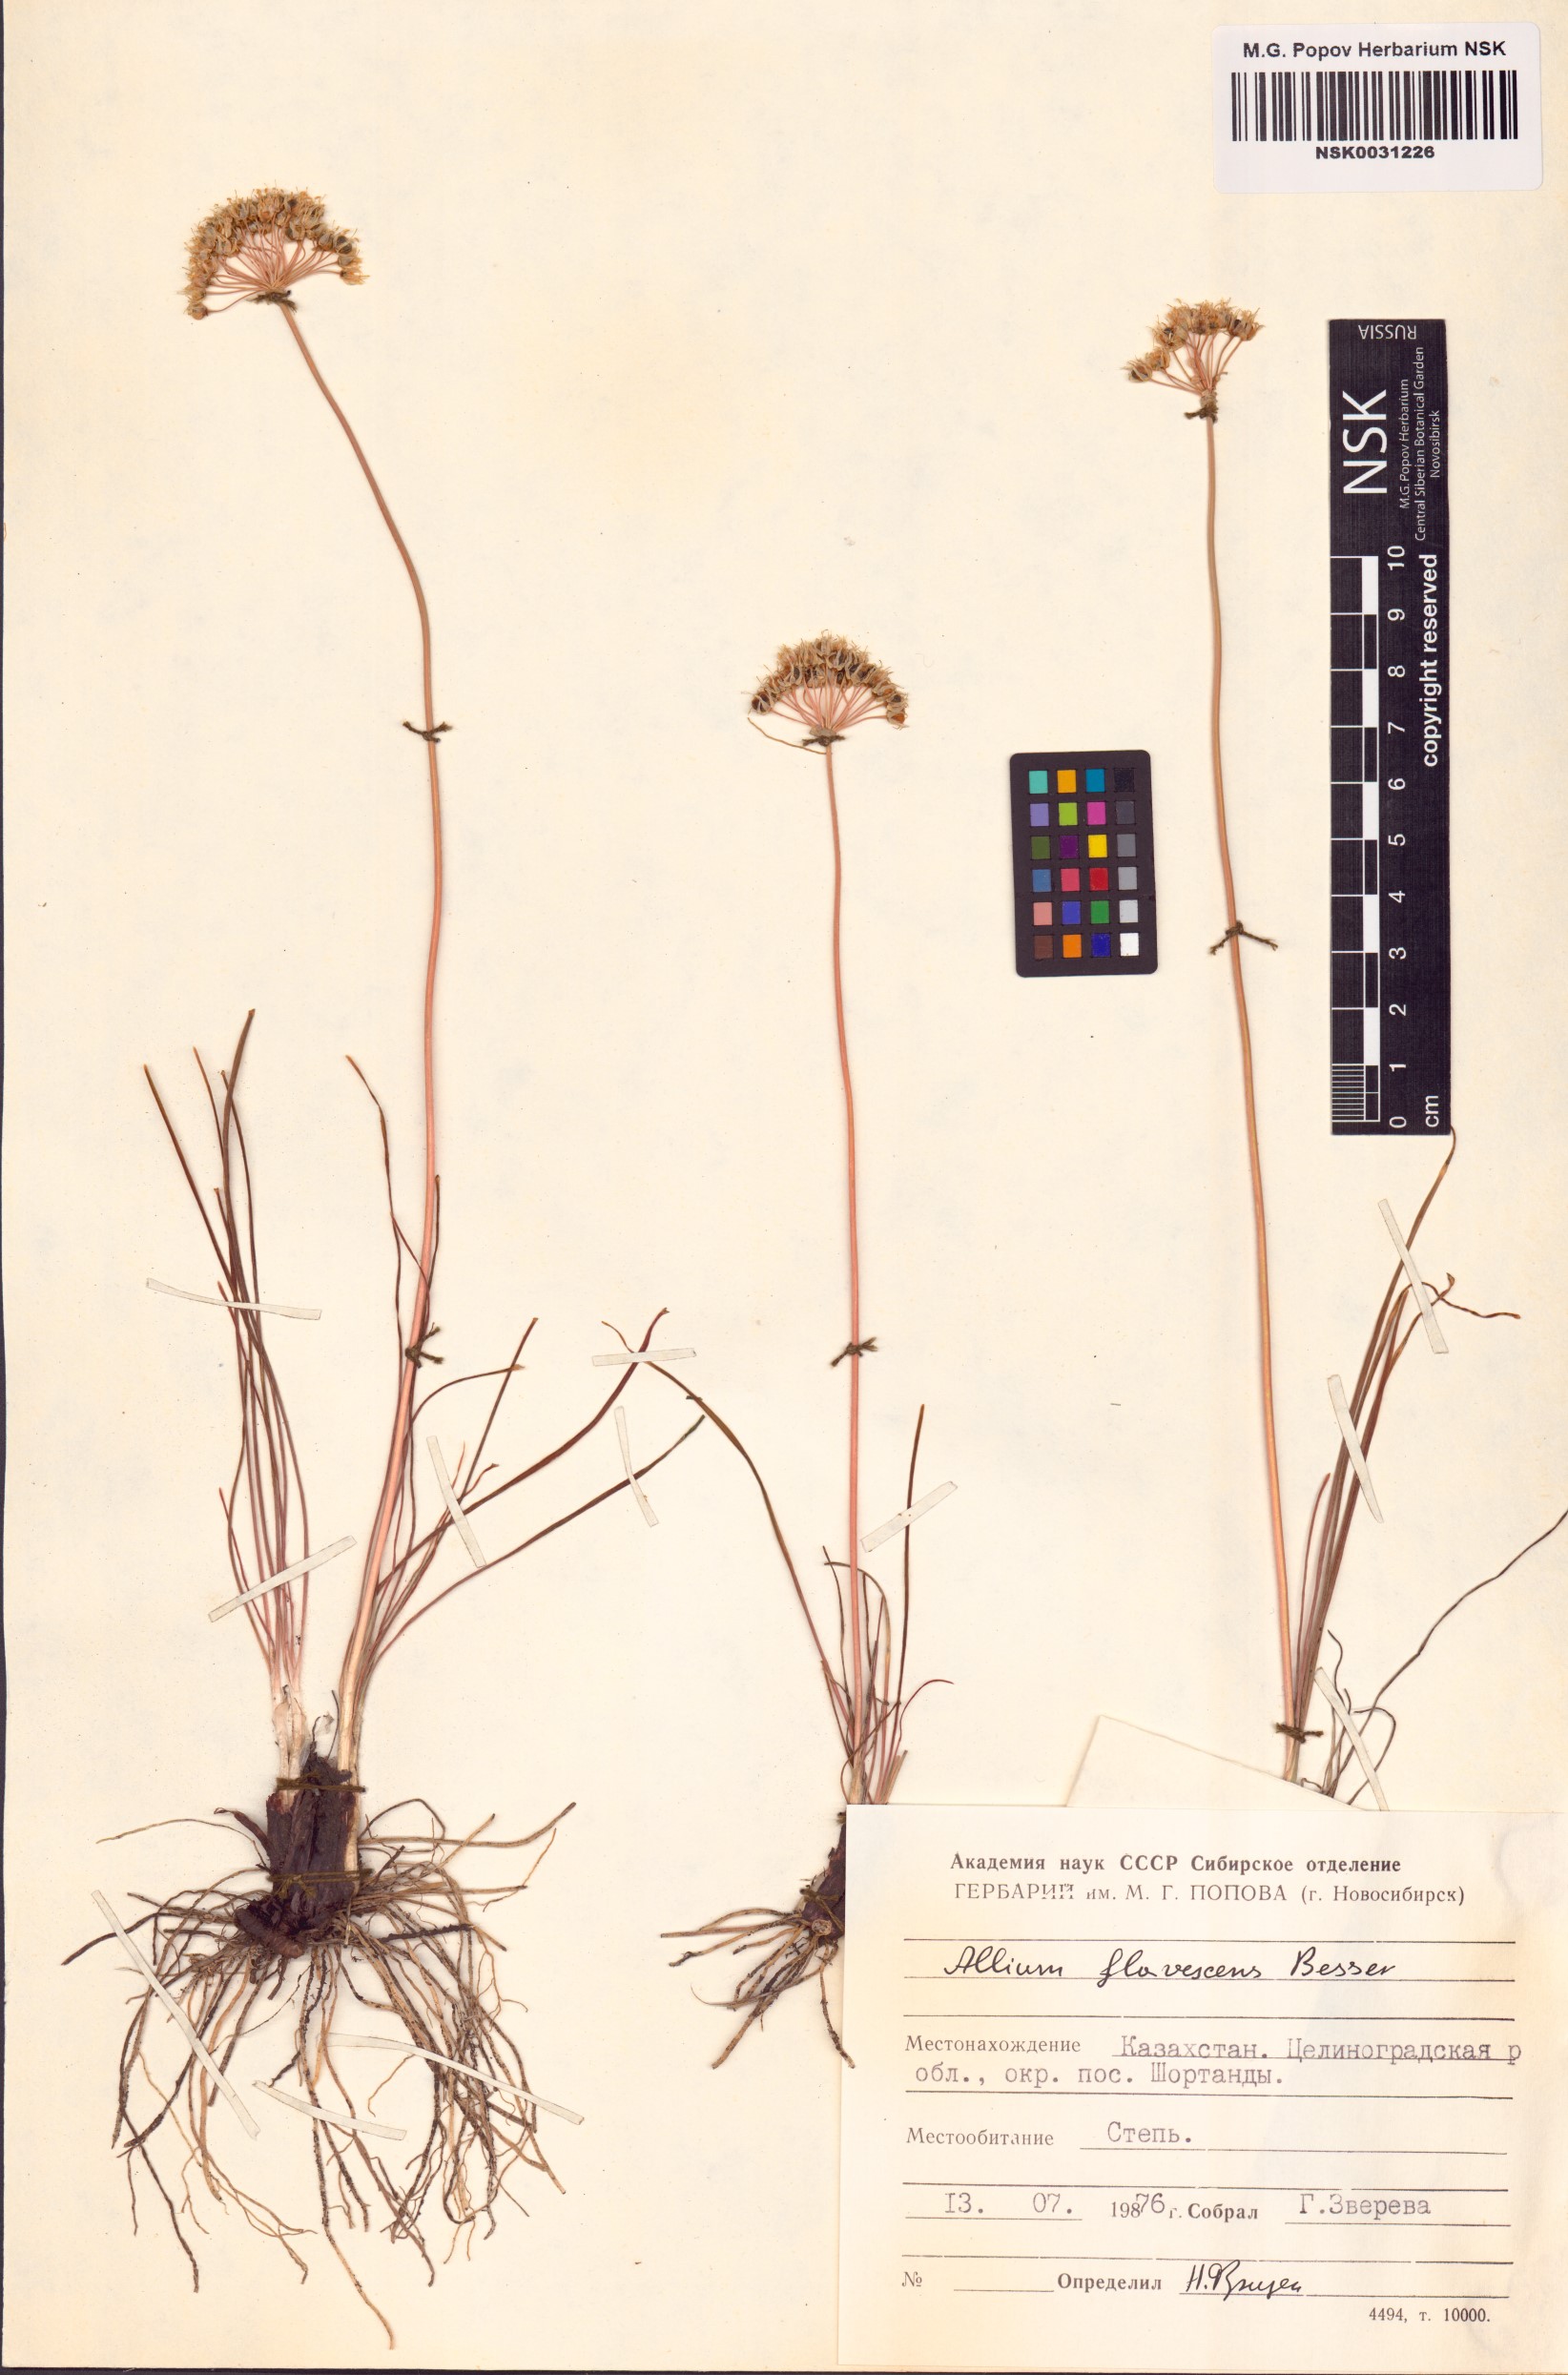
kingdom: Plantae
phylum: Tracheophyta
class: Liliopsida
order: Asparagales
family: Amaryllidaceae
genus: Allium
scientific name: Allium flavescens
